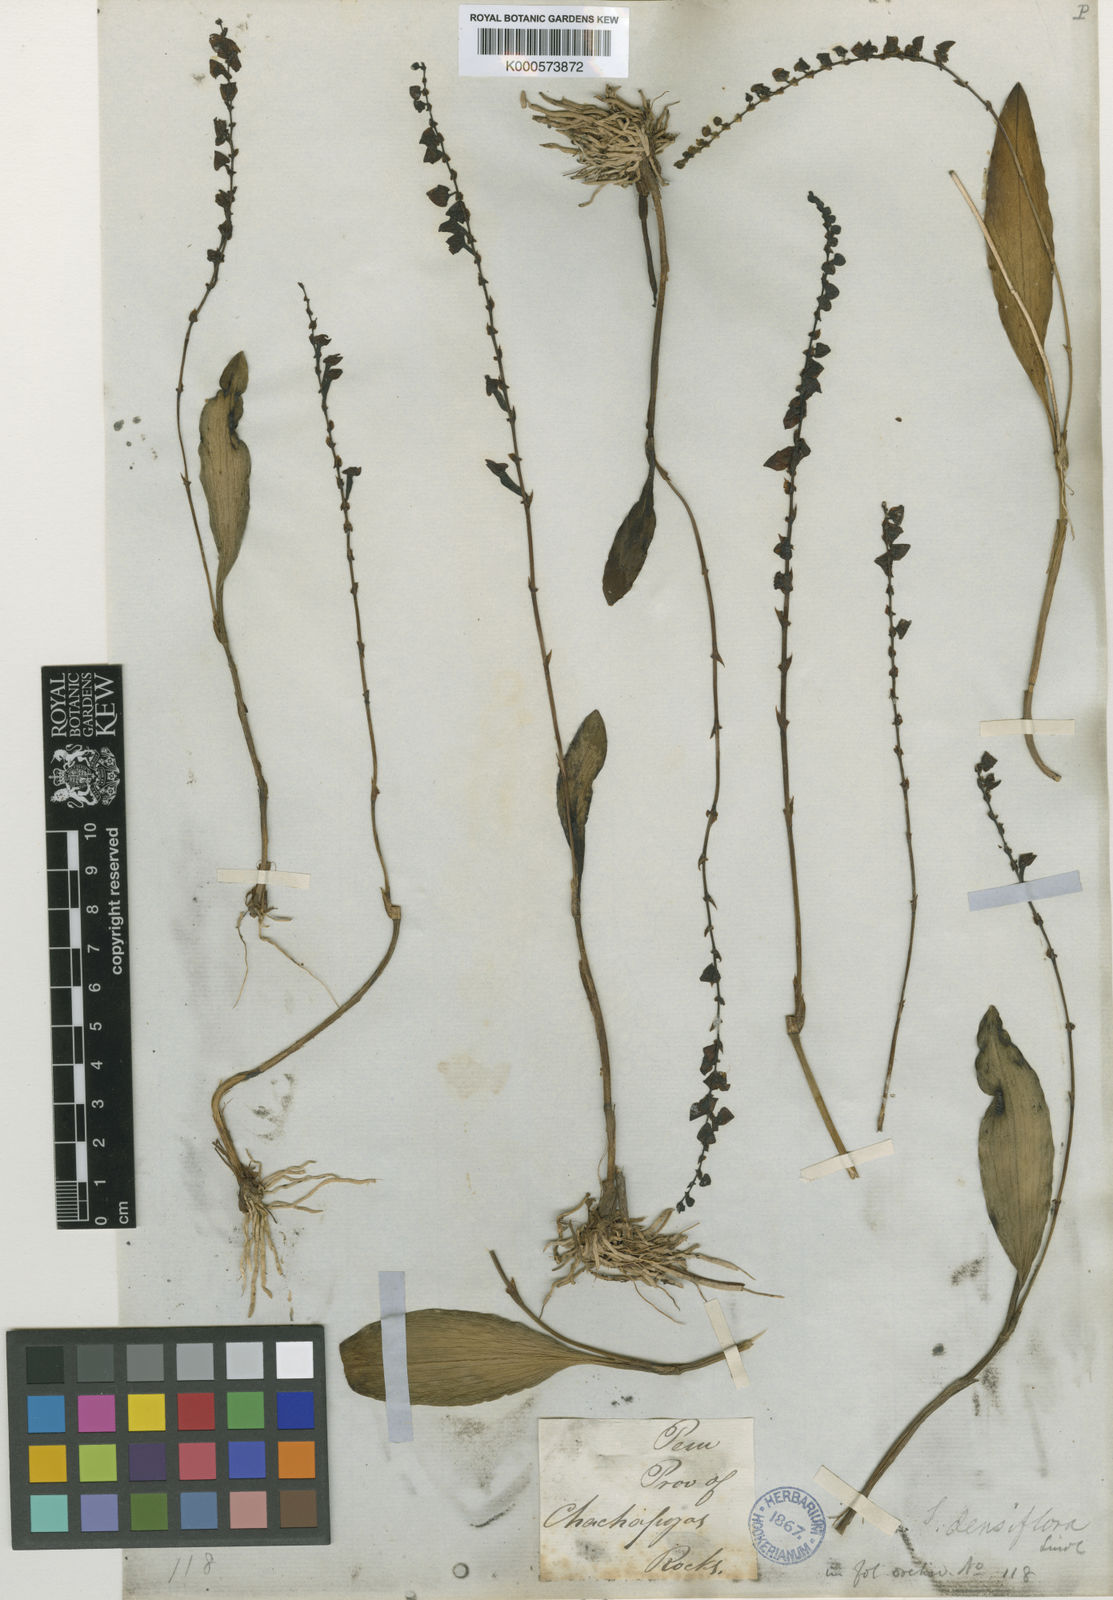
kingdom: Plantae
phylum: Tracheophyta
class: Liliopsida
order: Asparagales
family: Orchidaceae
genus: Stelis
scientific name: Stelis purpurea
